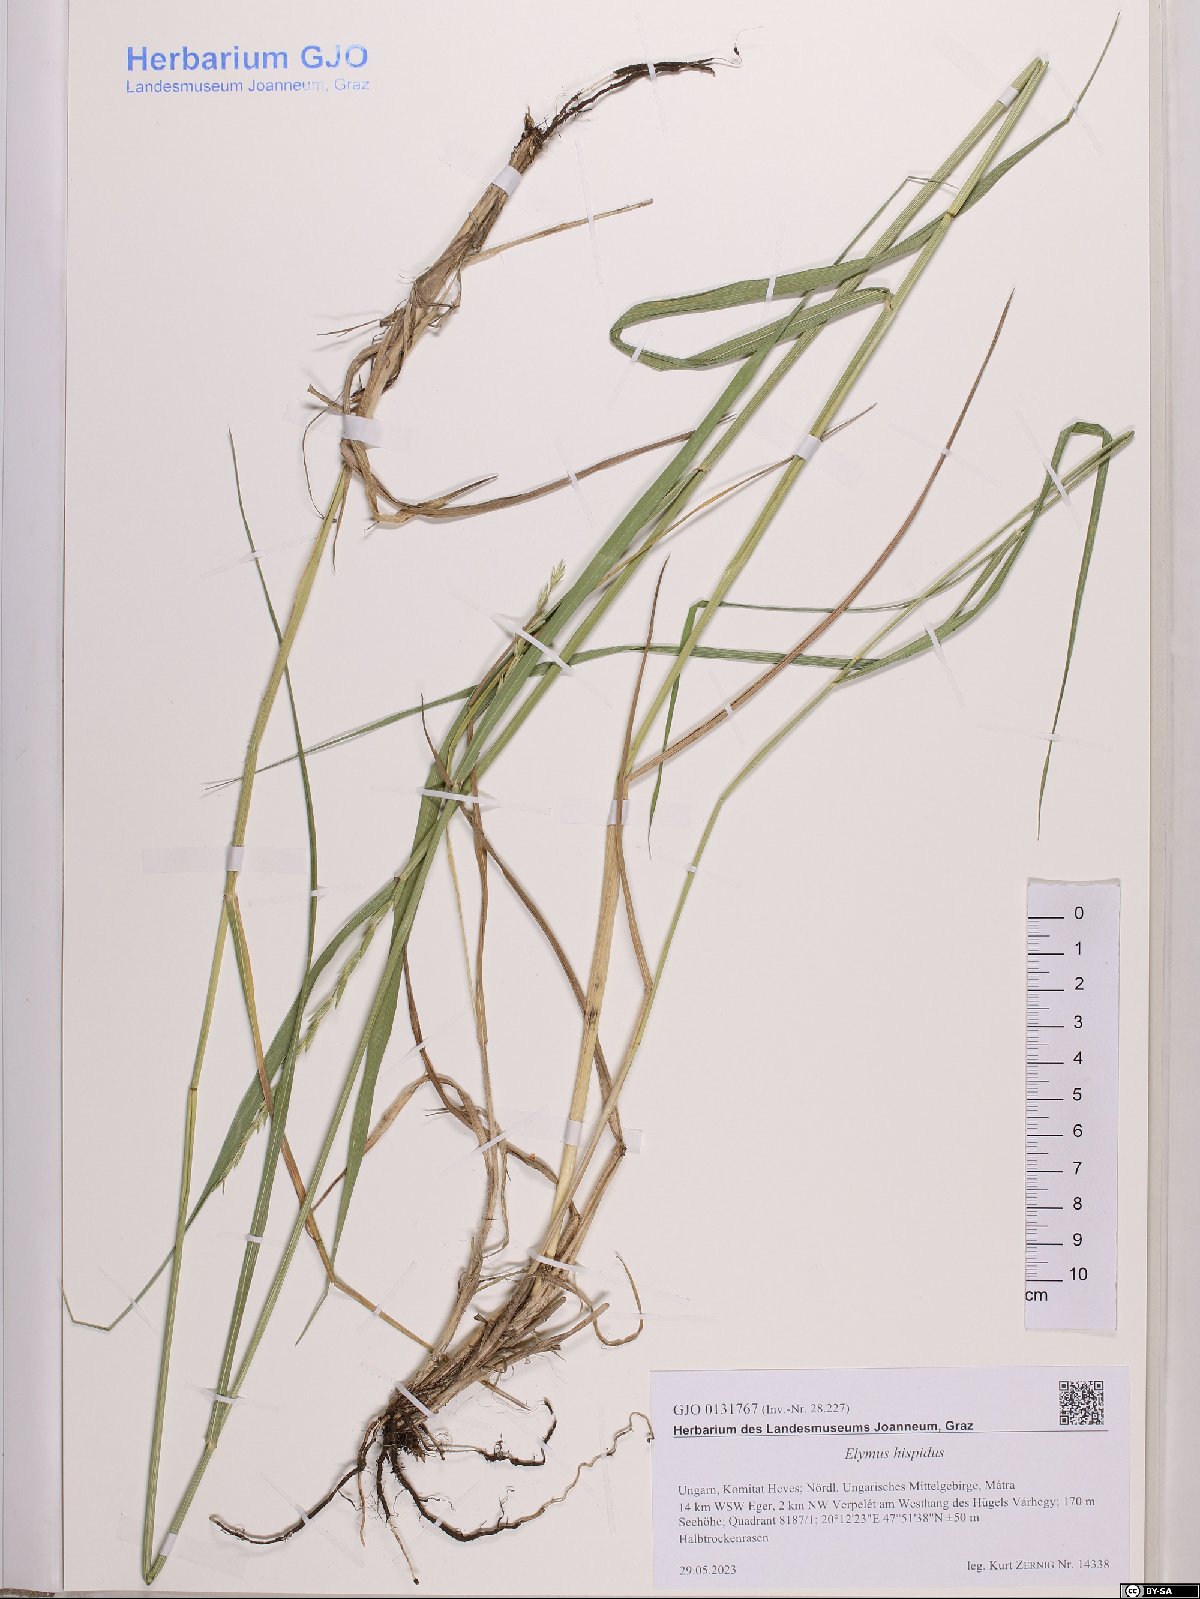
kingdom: Plantae
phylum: Tracheophyta
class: Liliopsida
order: Poales
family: Poaceae
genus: Thinopyrum
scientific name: Thinopyrum intermedium
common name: Intermediate wheatgrass
